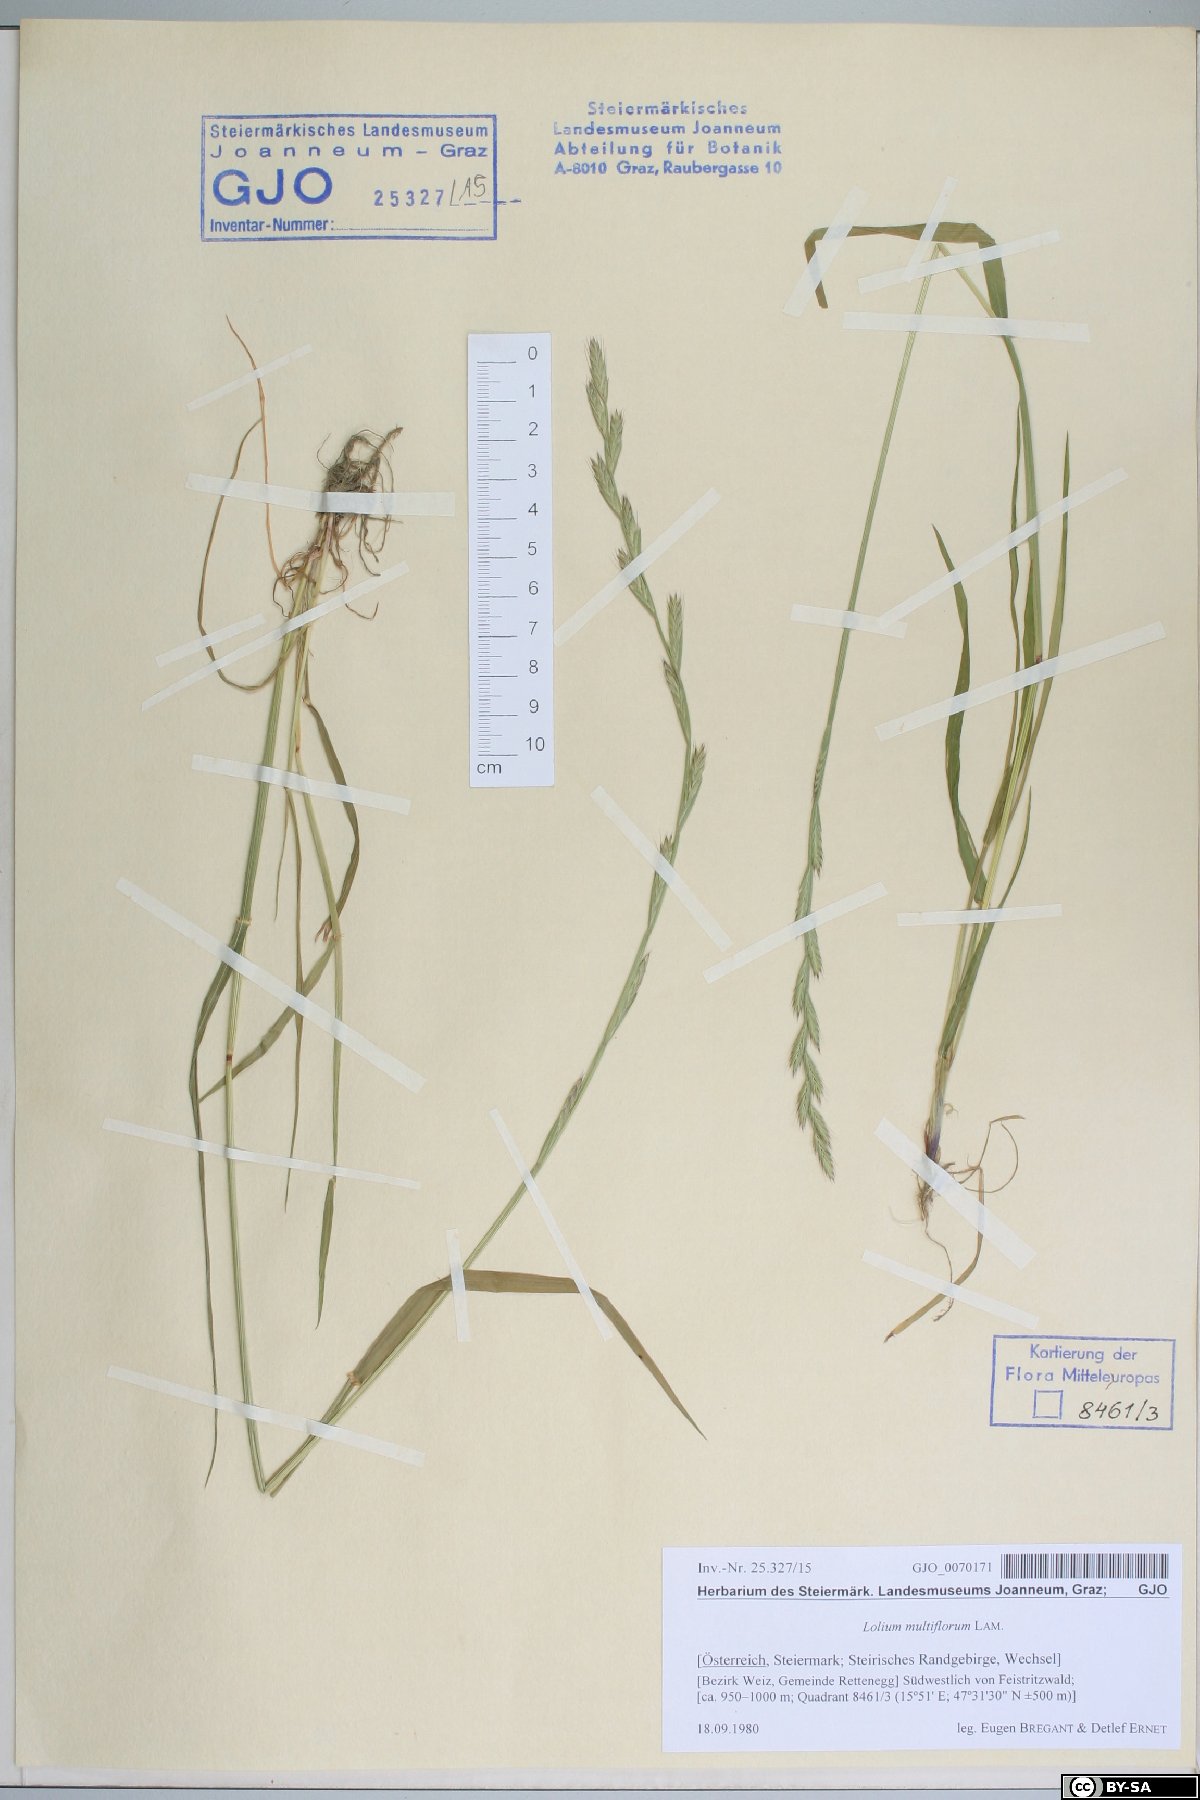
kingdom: Plantae
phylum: Tracheophyta
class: Liliopsida
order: Poales
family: Poaceae
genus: Lolium
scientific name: Lolium multiflorum
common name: Annual ryegrass
